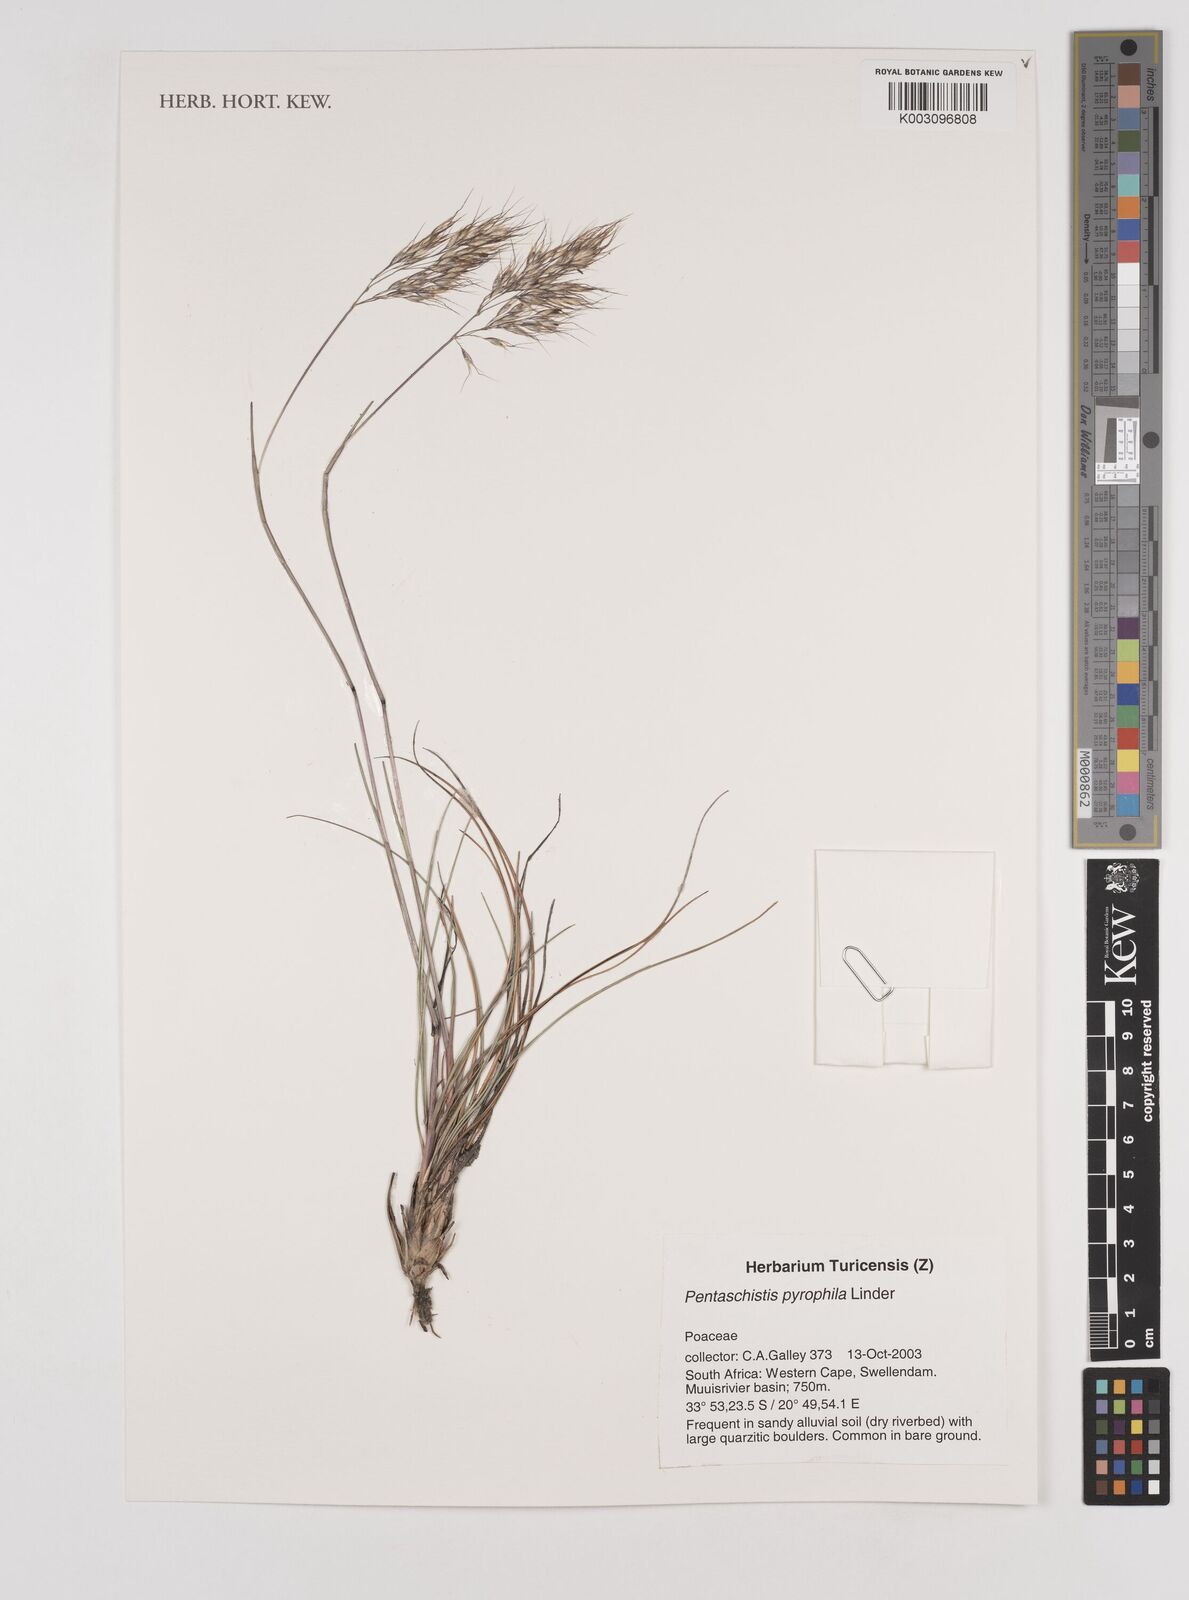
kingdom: Plantae
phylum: Tracheophyta
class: Liliopsida
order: Poales
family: Poaceae
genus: Pentameris
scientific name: Pentameris pyrophila
